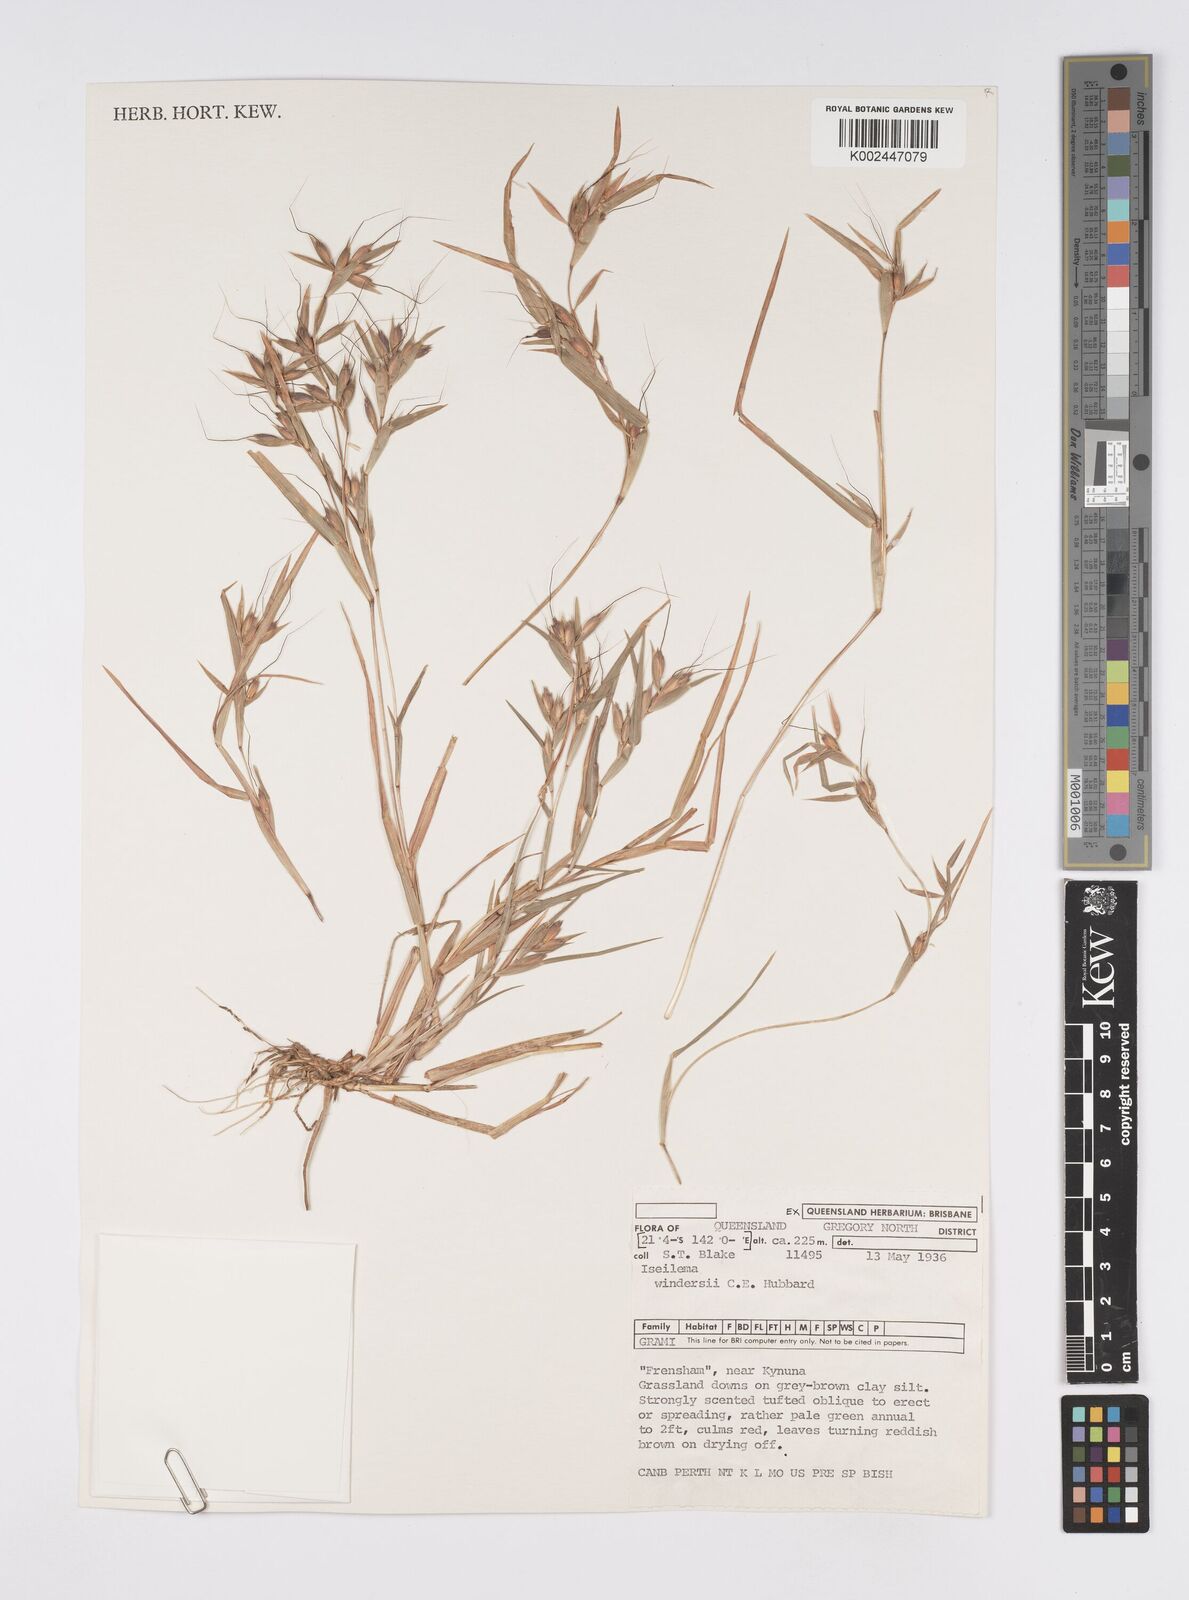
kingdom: Plantae
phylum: Tracheophyta
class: Liliopsida
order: Poales
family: Poaceae
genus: Iseilema
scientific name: Iseilema windersii
